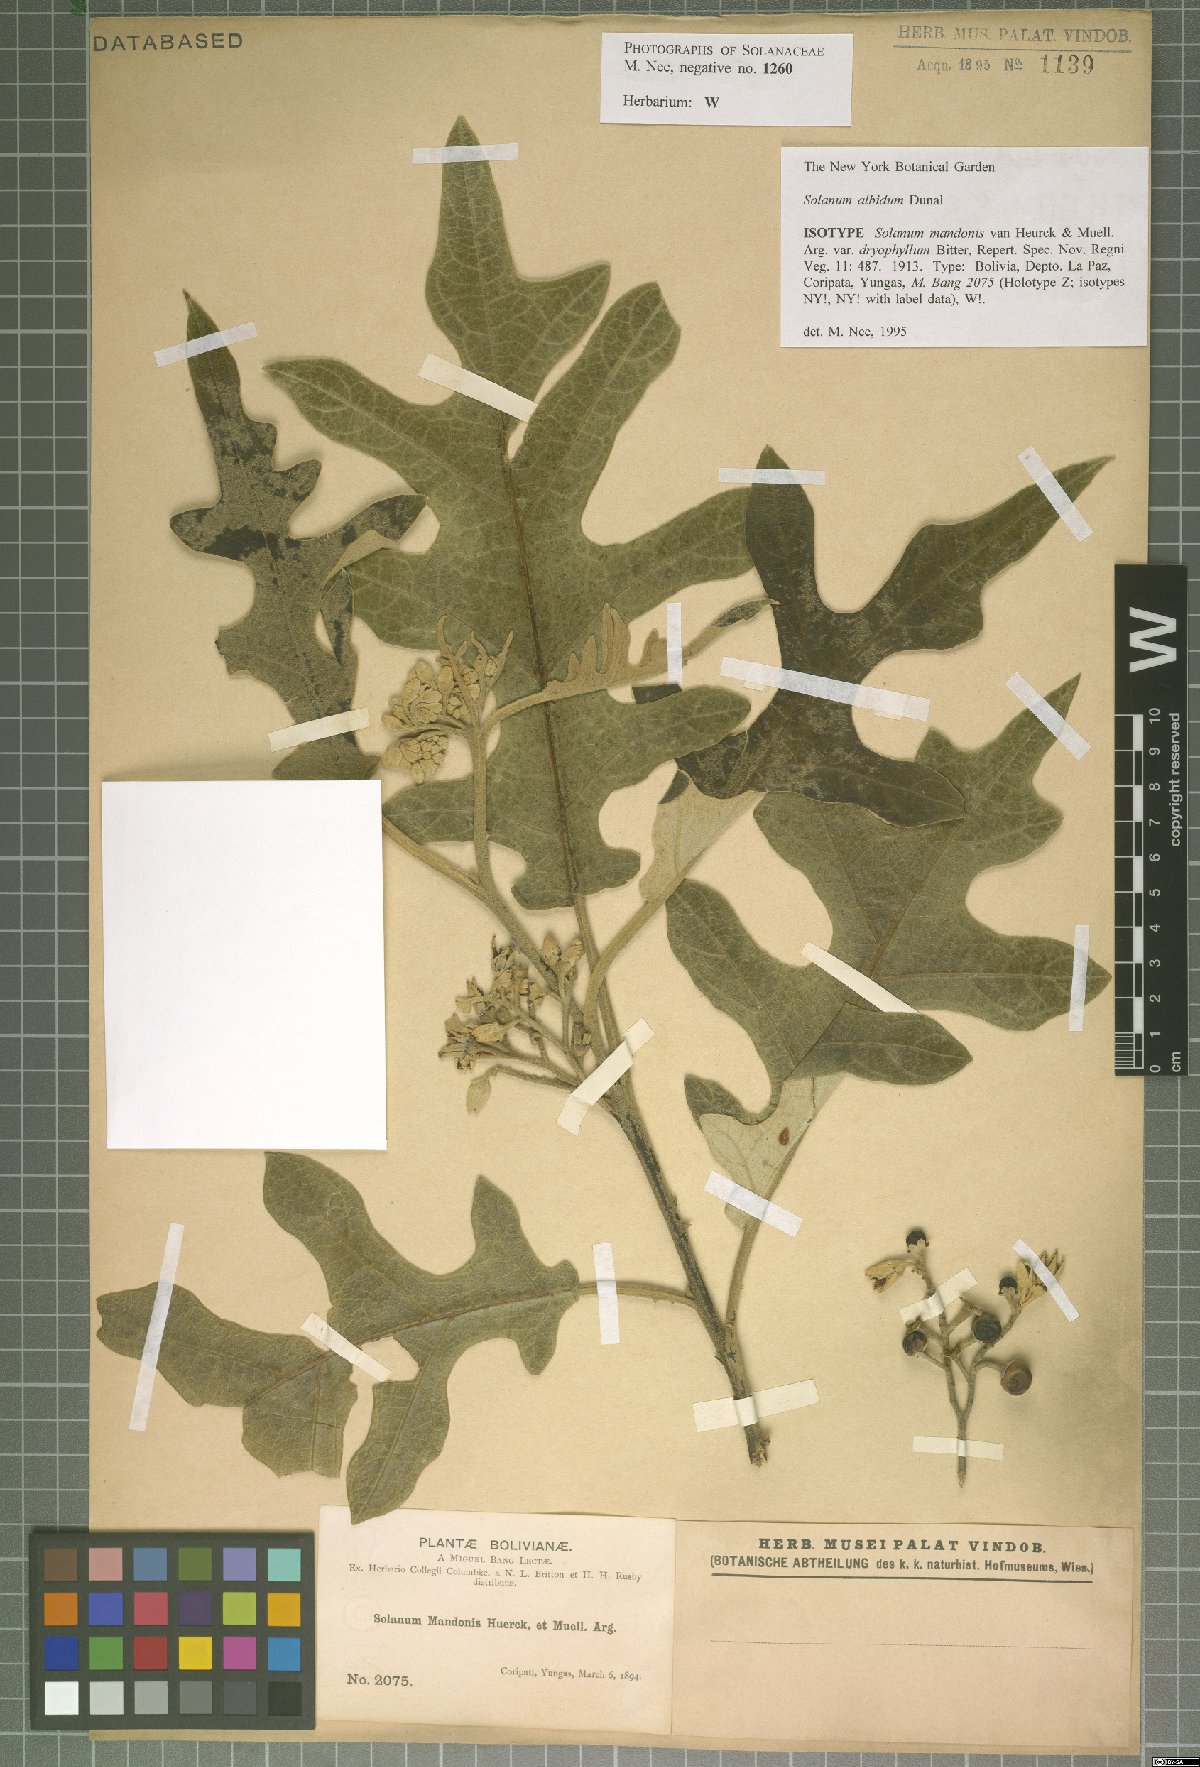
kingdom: Plantae
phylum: Tracheophyta
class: Magnoliopsida
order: Solanales
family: Solanaceae
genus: Solanum
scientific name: Solanum anguivi
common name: Forest bitterberry
